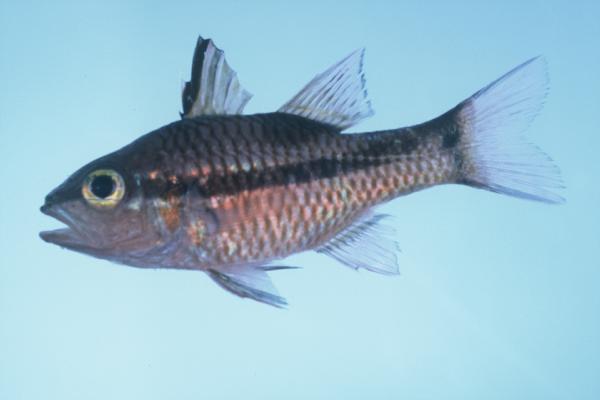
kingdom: Animalia
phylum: Chordata
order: Perciformes
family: Apogonidae
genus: Pristiapogon
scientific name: Pristiapogon kallopterus
